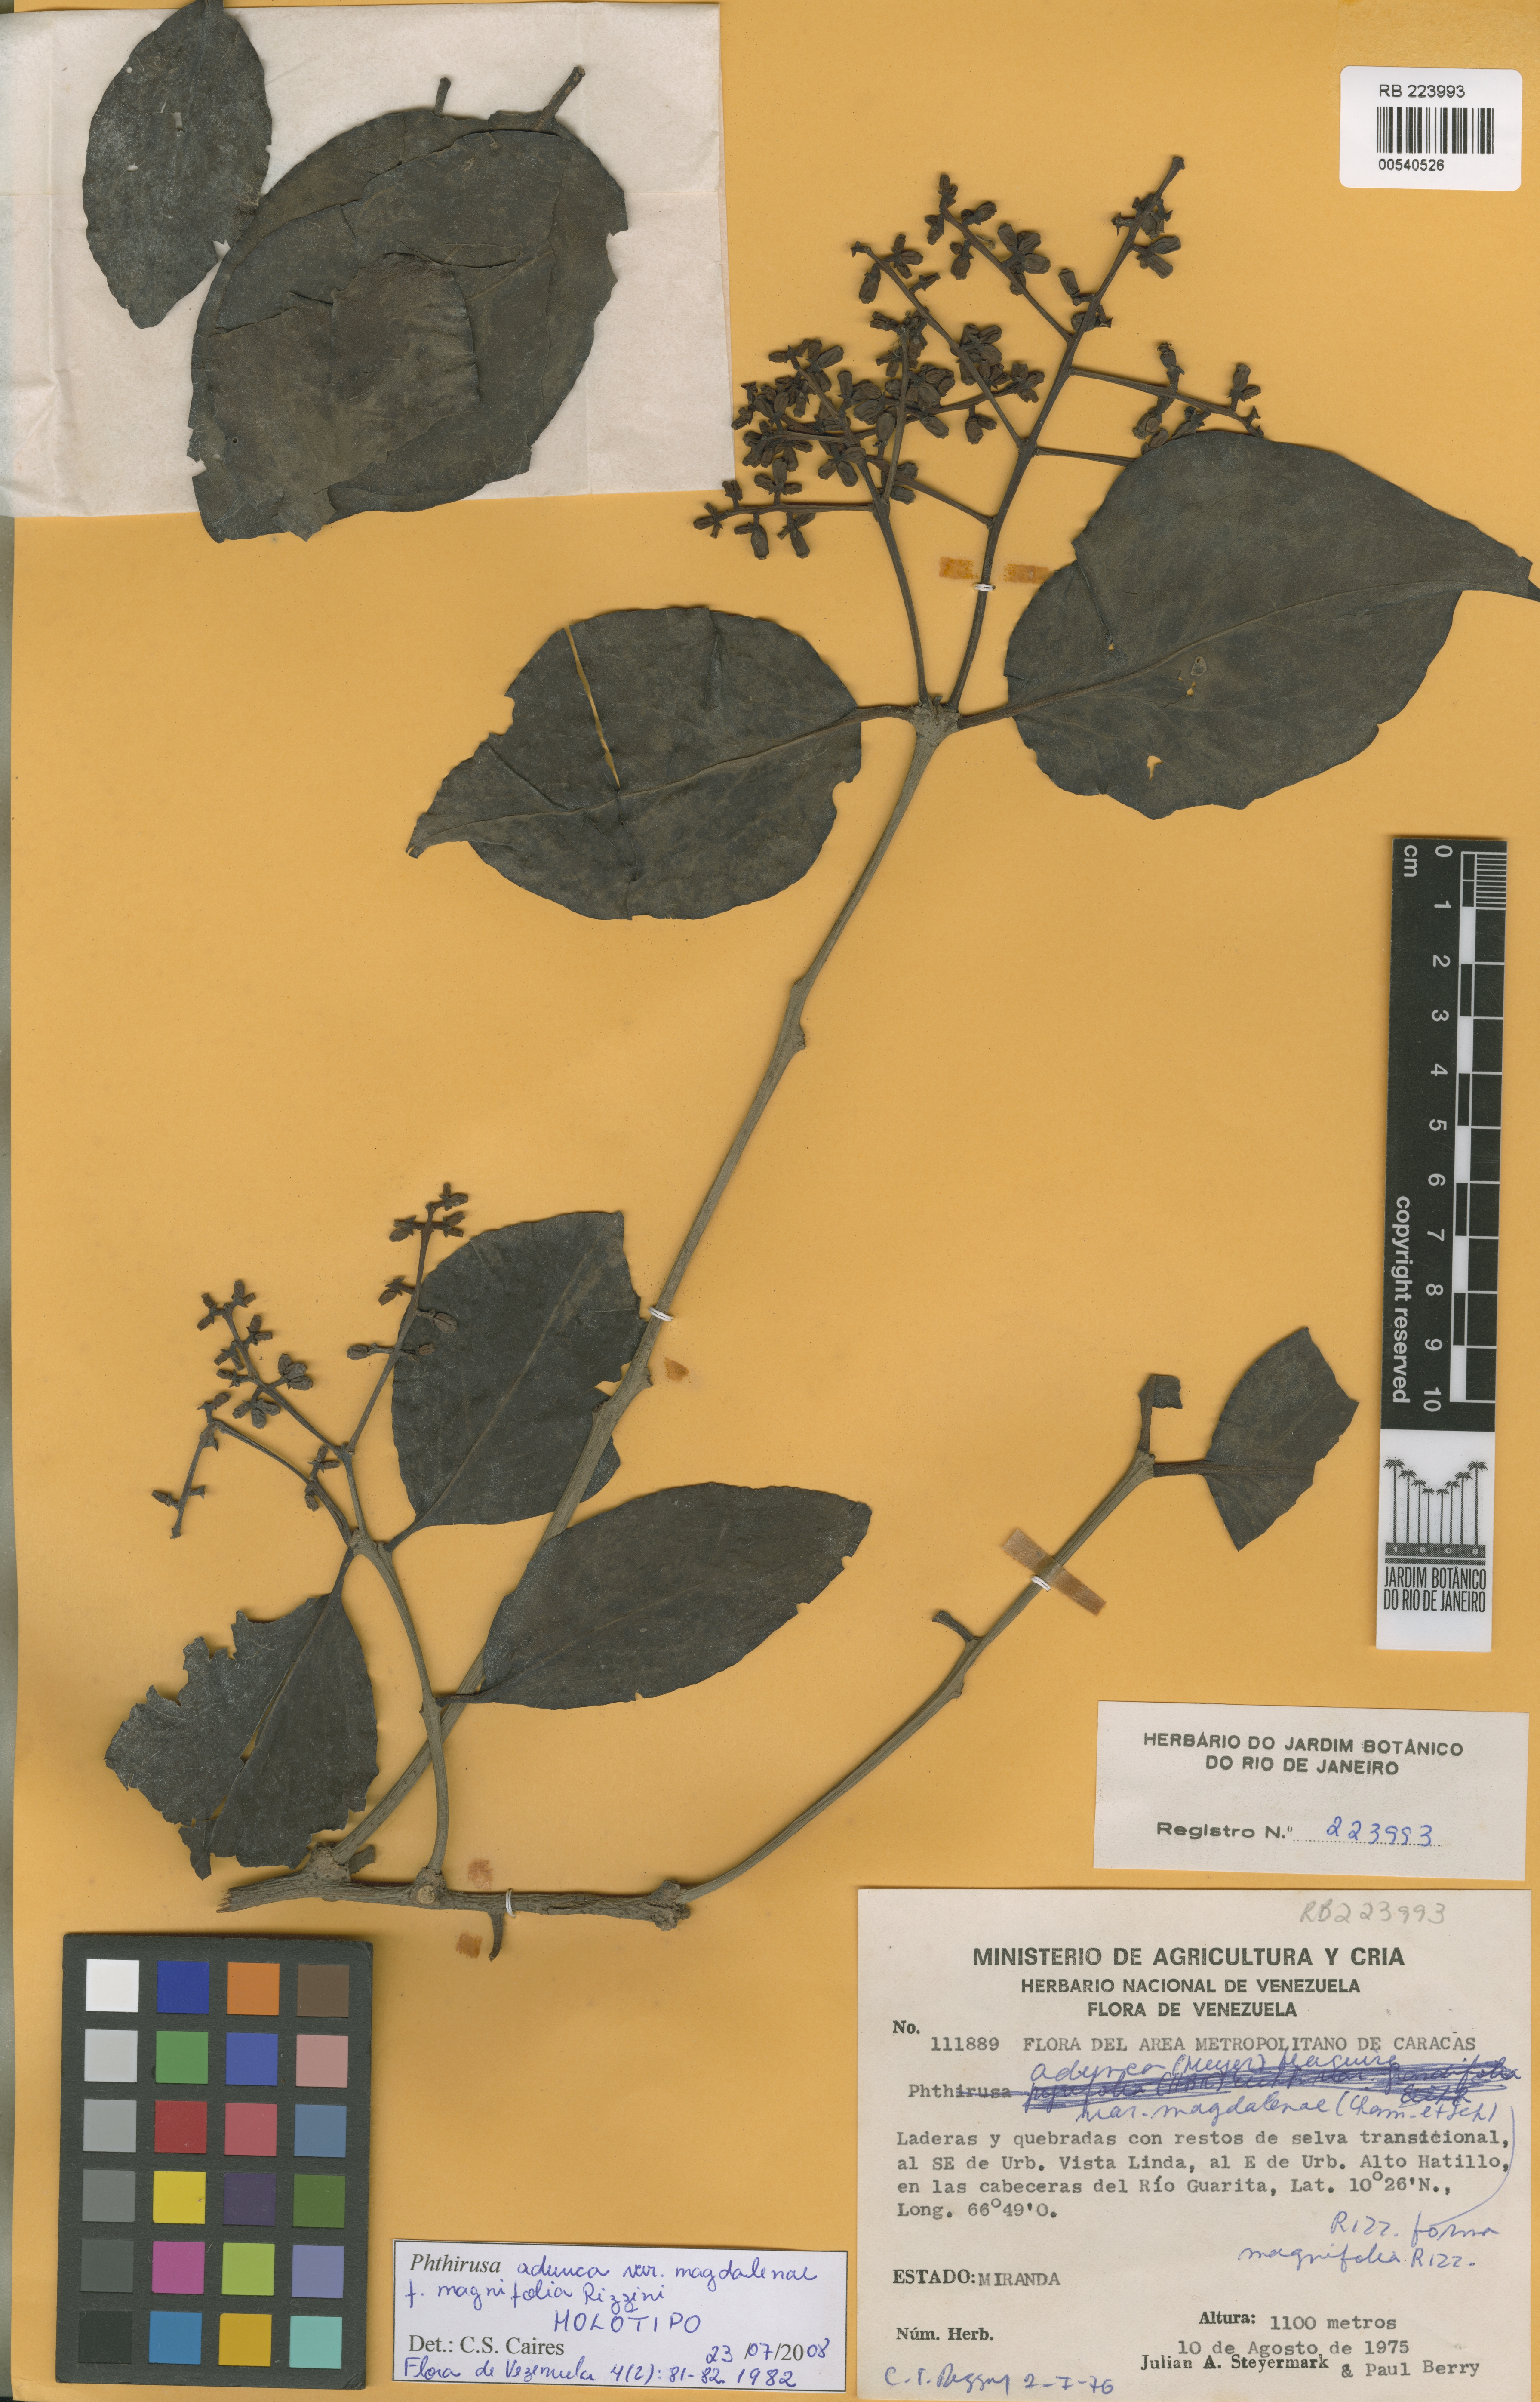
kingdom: Plantae
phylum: Tracheophyta
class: Magnoliopsida
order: Santalales
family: Loranthaceae
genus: Passovia
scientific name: Passovia pedunculata
